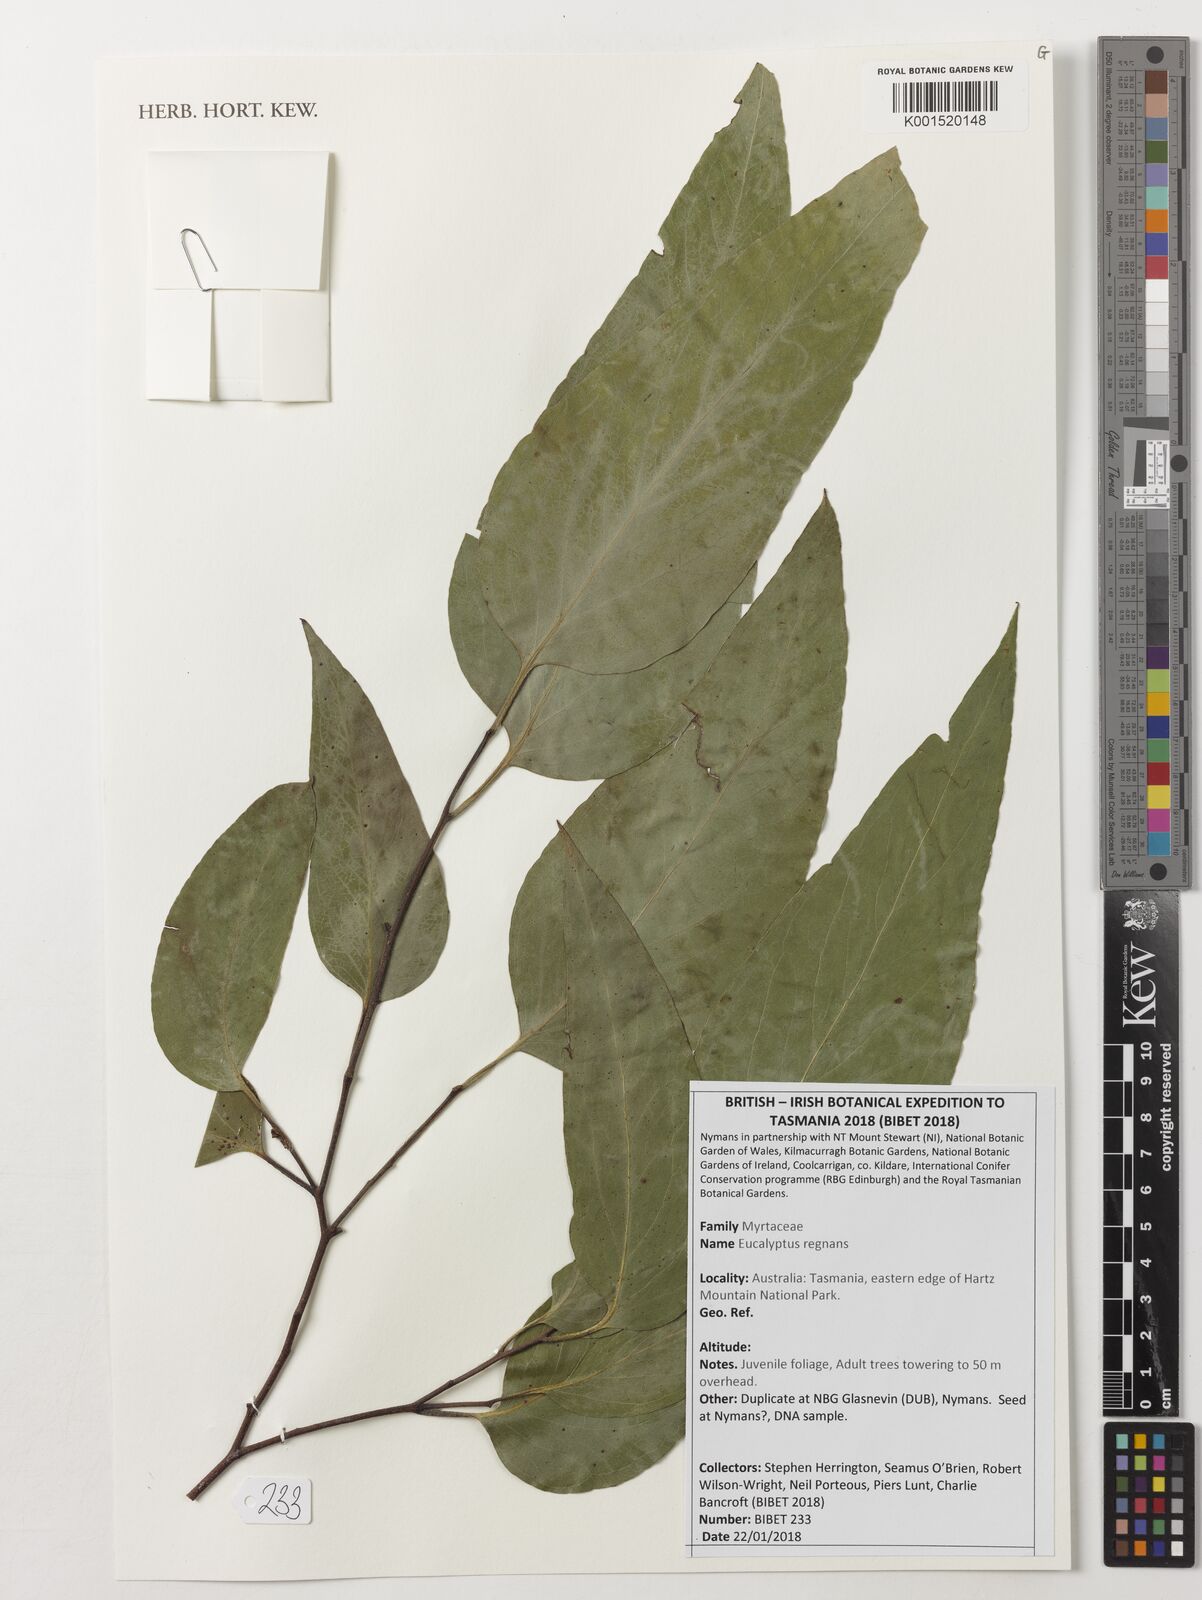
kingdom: Plantae
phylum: Tracheophyta
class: Magnoliopsida
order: Myrtales
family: Myrtaceae
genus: Eucalyptus
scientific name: Eucalyptus regnans
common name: Stringy gum
